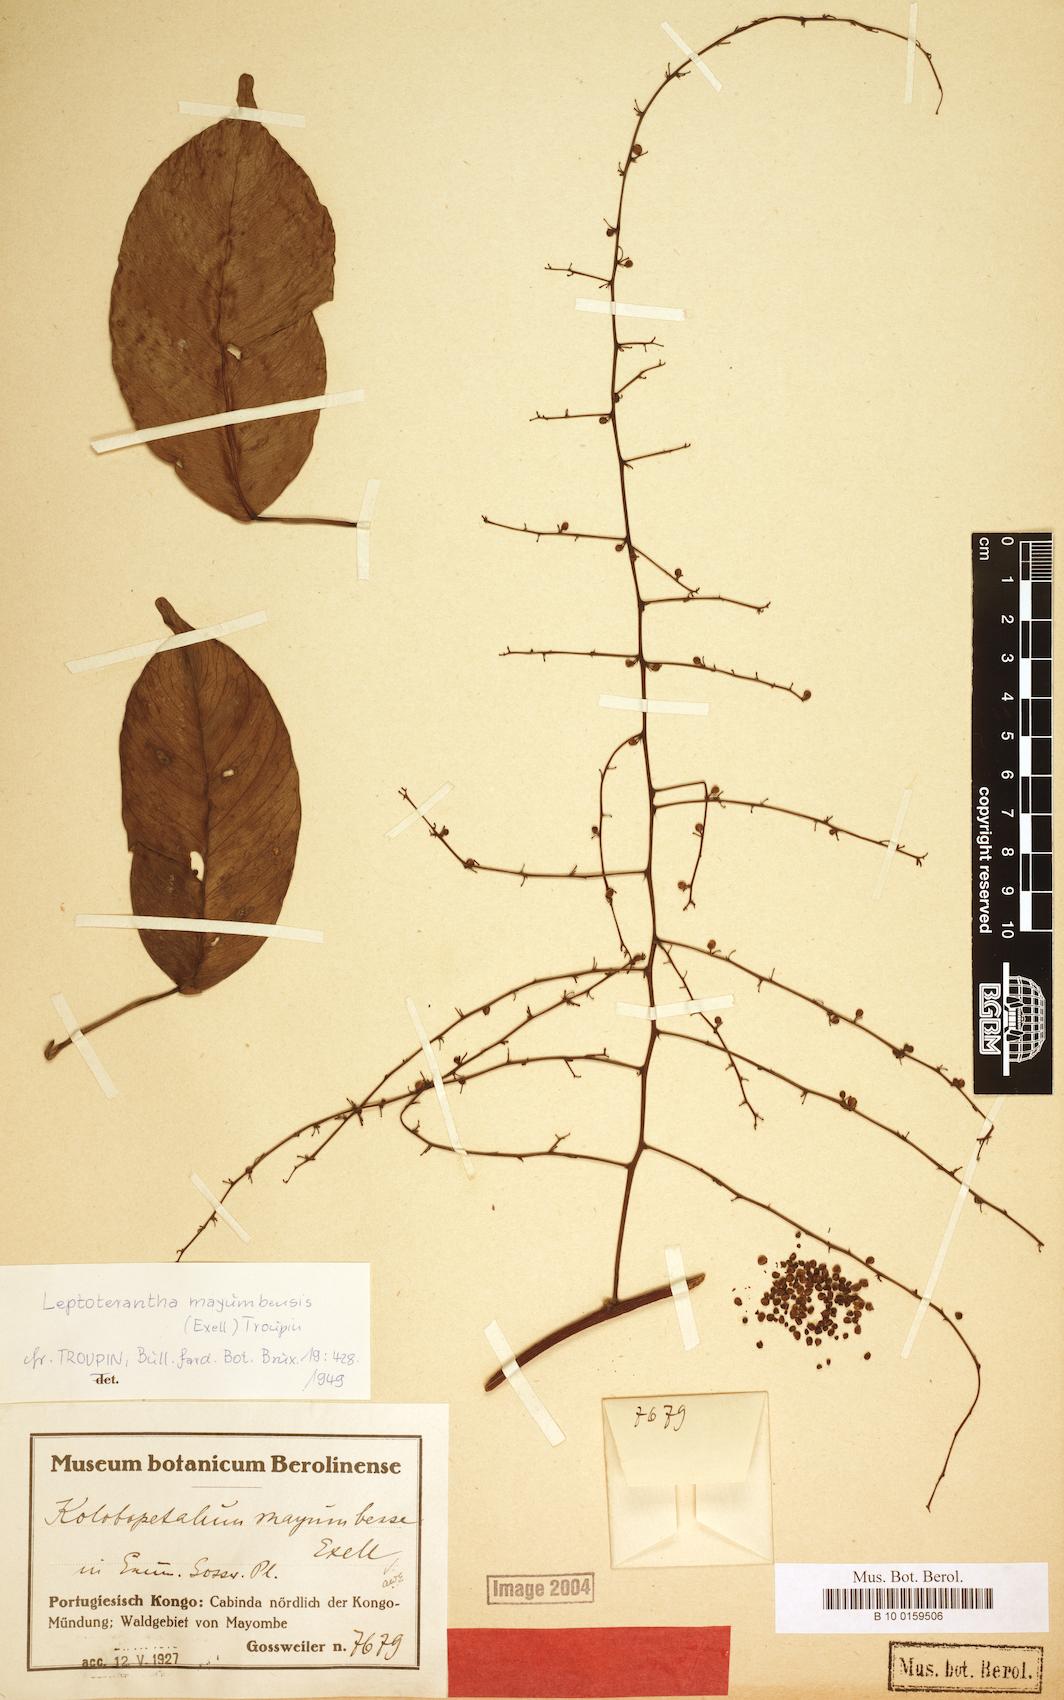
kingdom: Plantae
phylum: Tracheophyta
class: Magnoliopsida
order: Ranunculales
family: Menispermaceae
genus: Leptoterantha
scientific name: Leptoterantha mayumbensis
